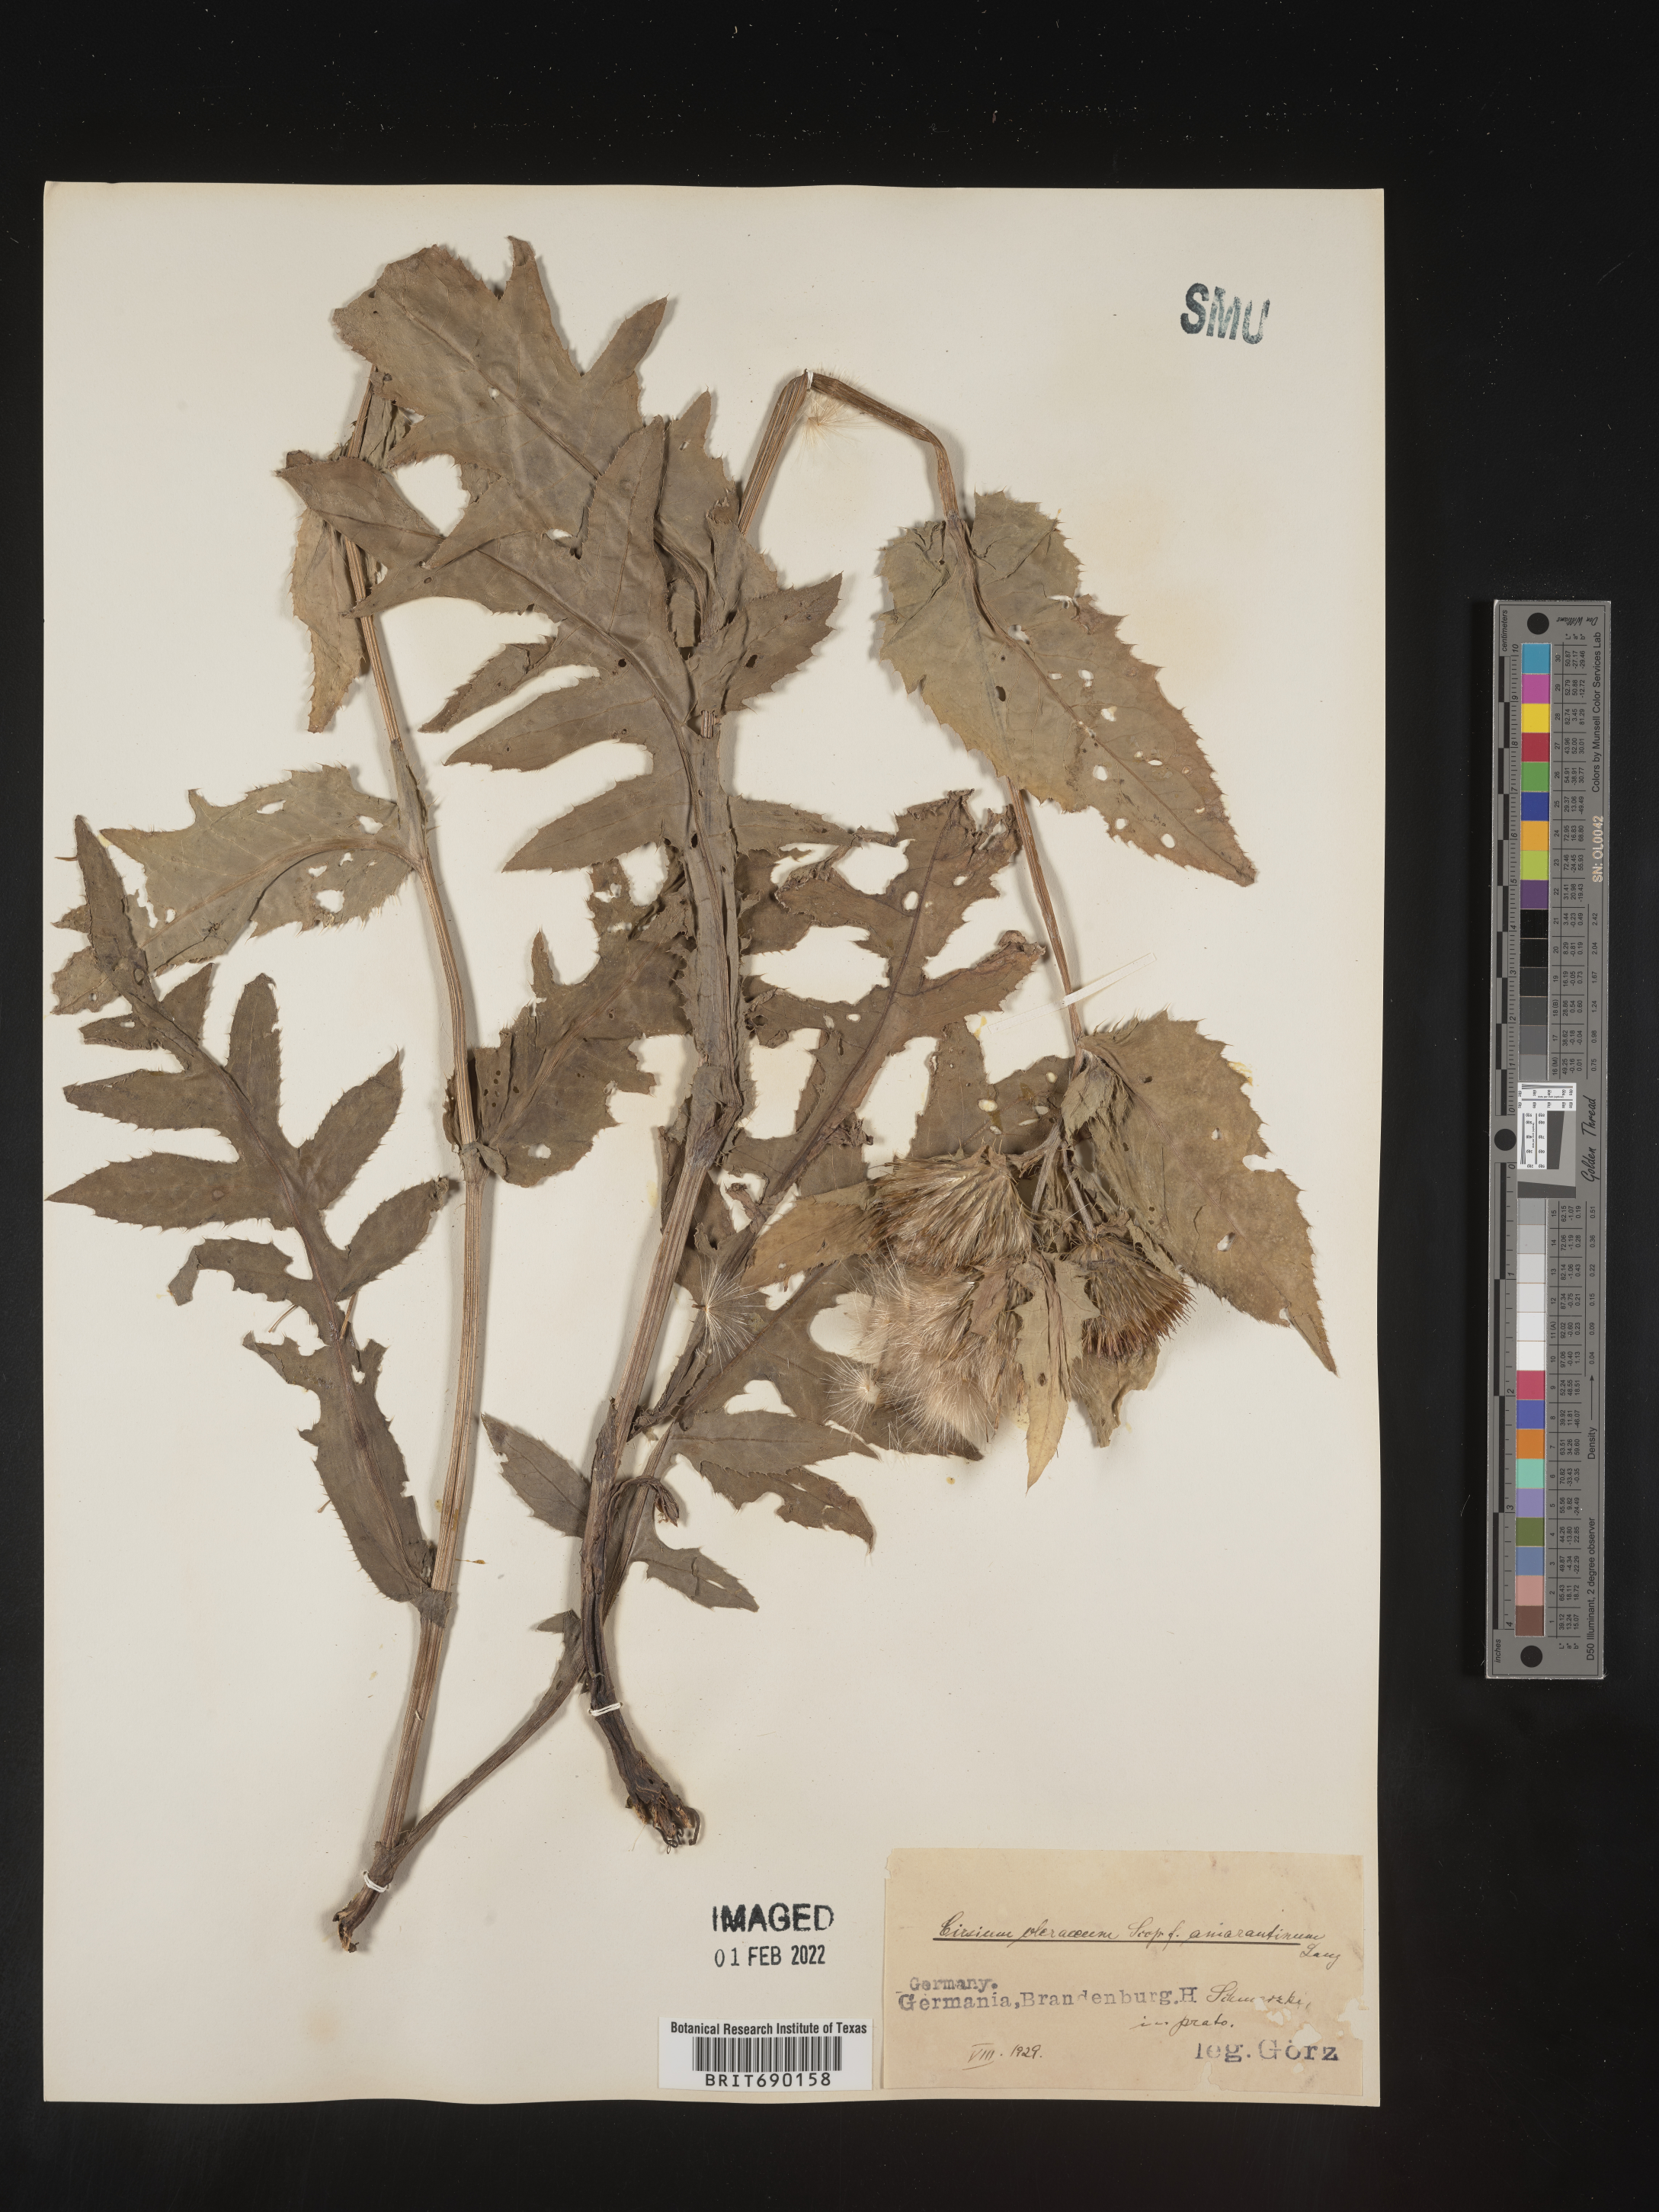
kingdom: Plantae
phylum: Tracheophyta
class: Magnoliopsida
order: Asterales
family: Asteraceae
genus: Cirsium
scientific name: Cirsium
